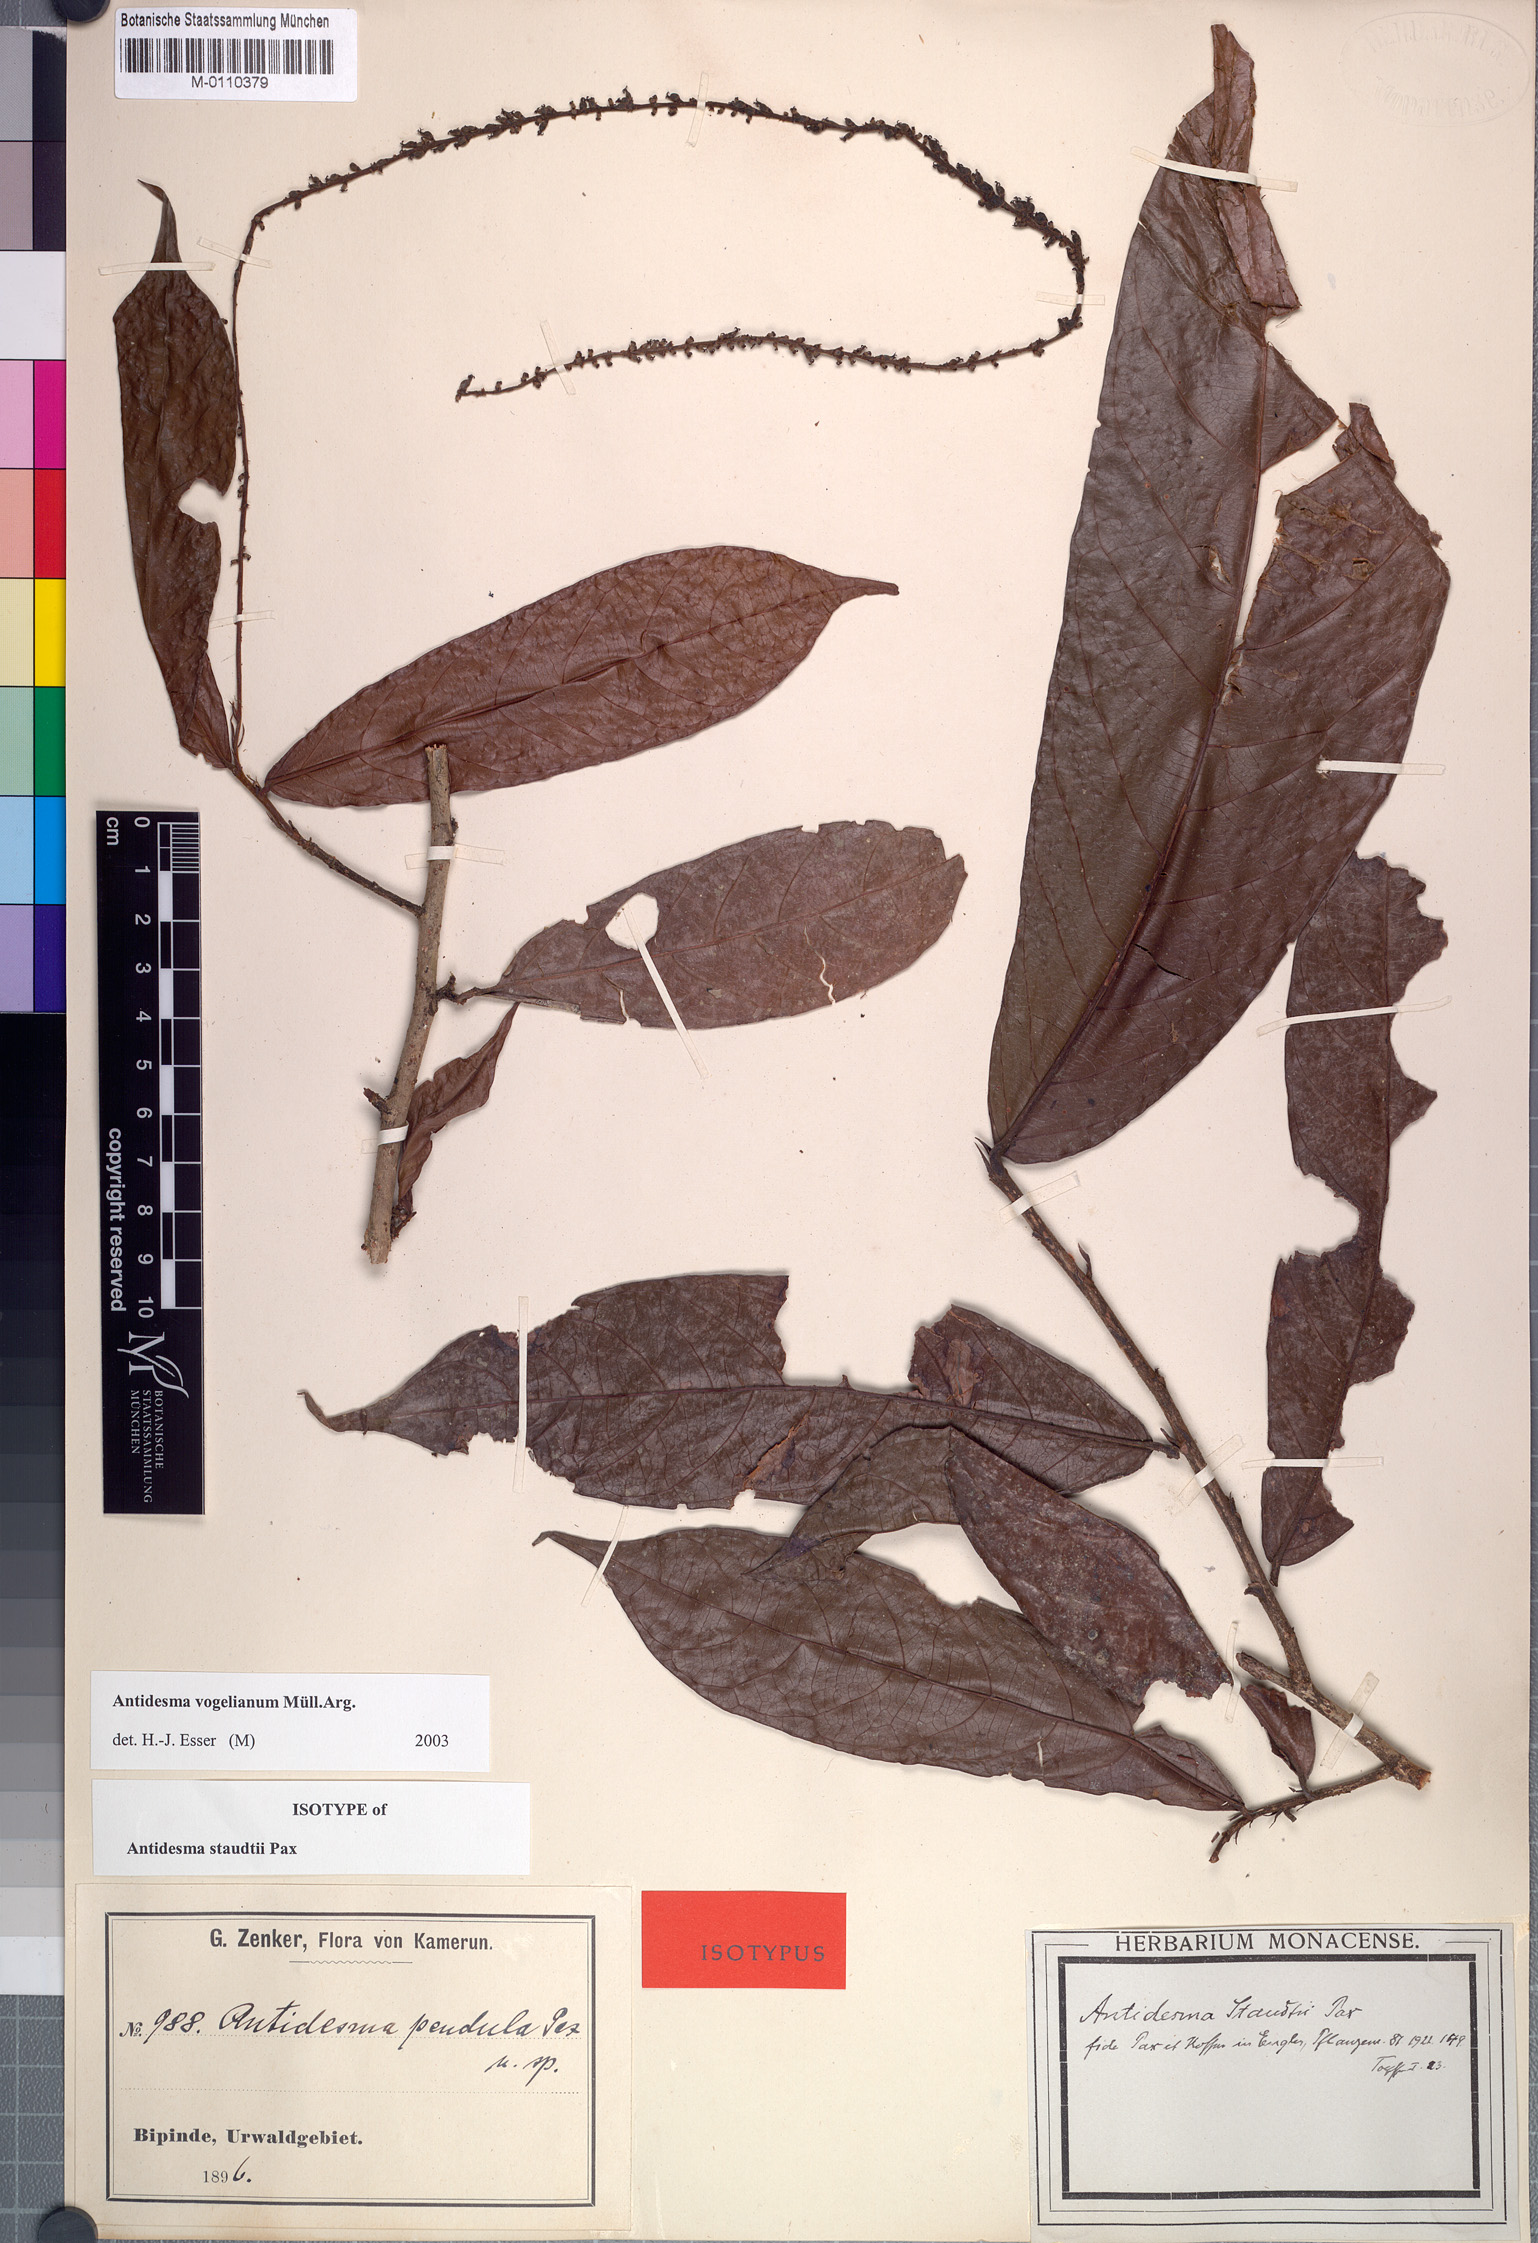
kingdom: Plantae
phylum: Tracheophyta
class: Magnoliopsida
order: Malpighiales
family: Phyllanthaceae
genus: Antidesma
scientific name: Antidesma vogelianum
